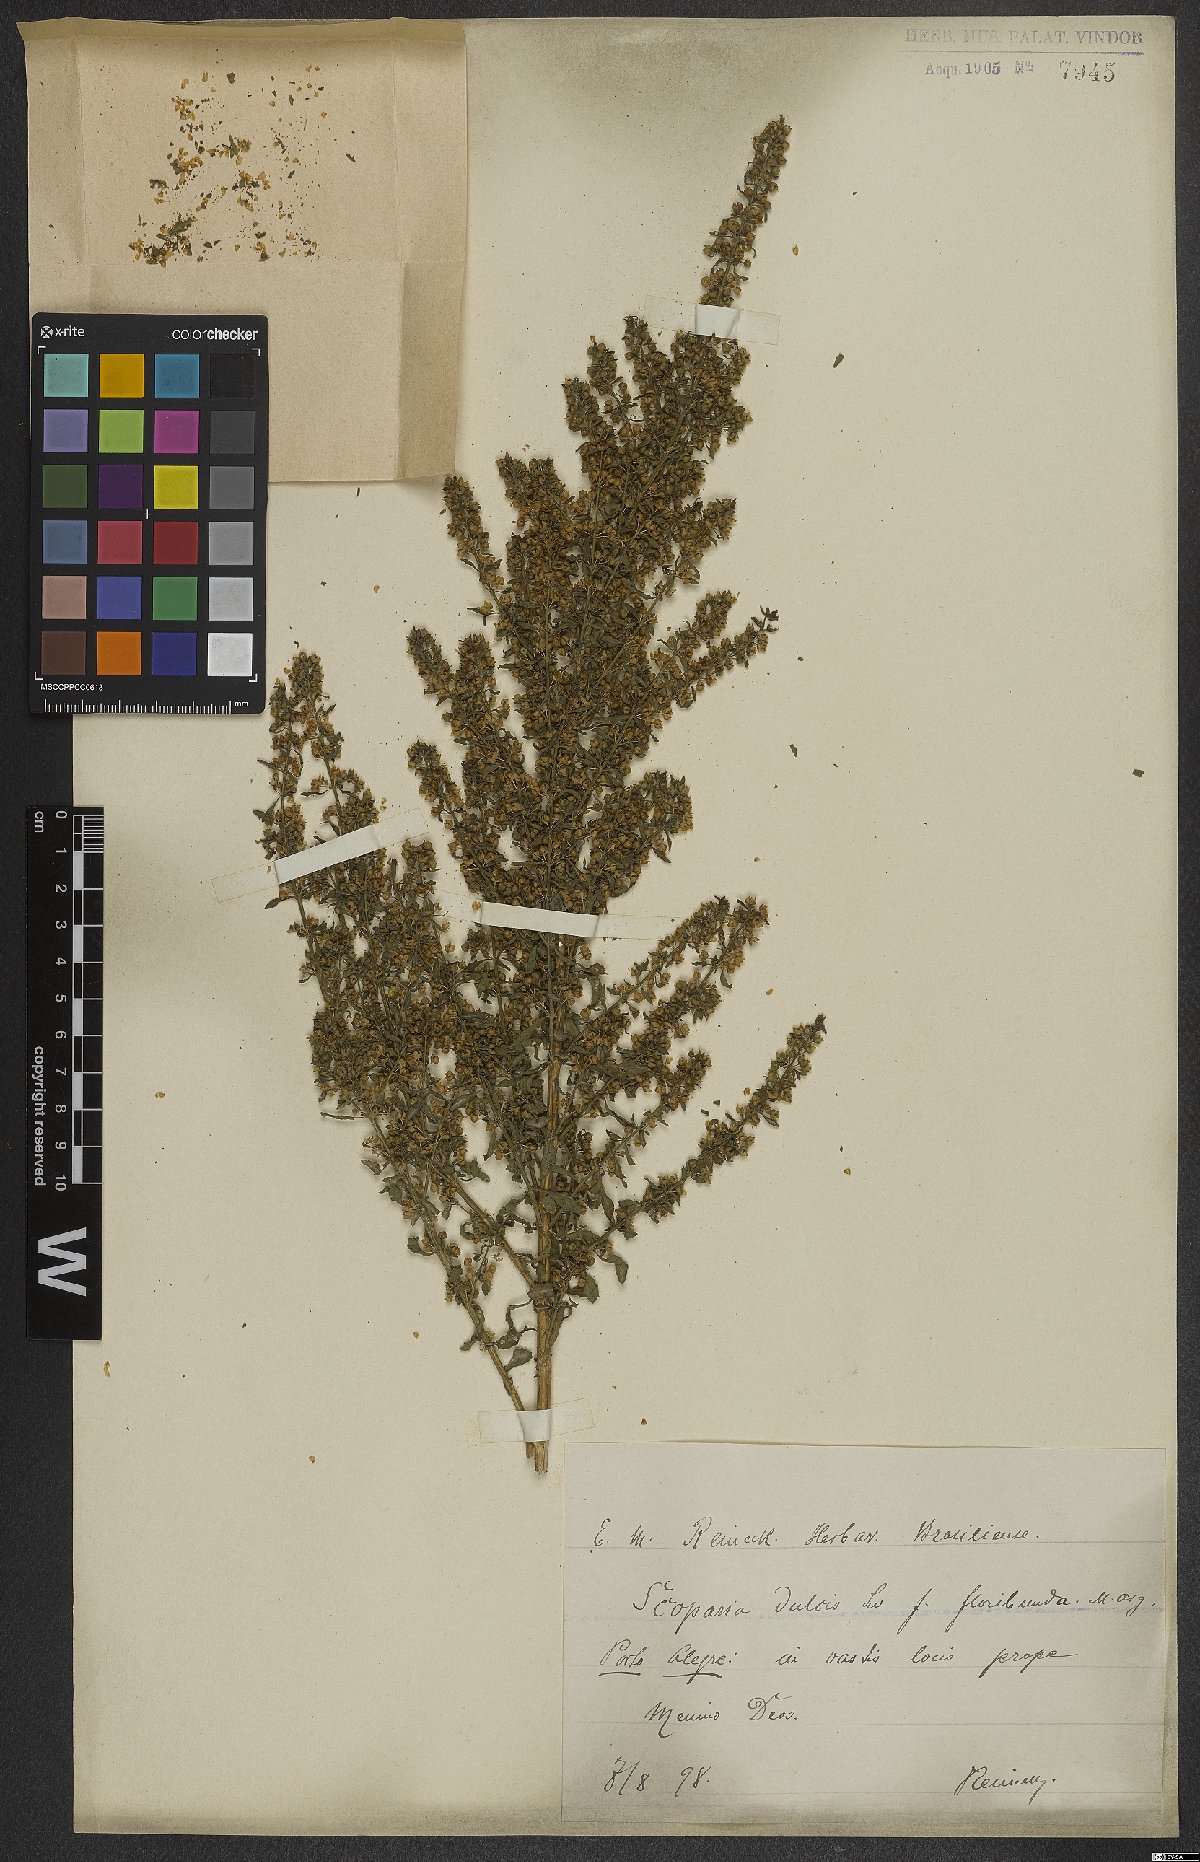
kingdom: Plantae
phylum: Tracheophyta
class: Magnoliopsida
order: Lamiales
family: Plantaginaceae
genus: Scoparia
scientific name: Scoparia dulcis
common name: Scoparia-weed
